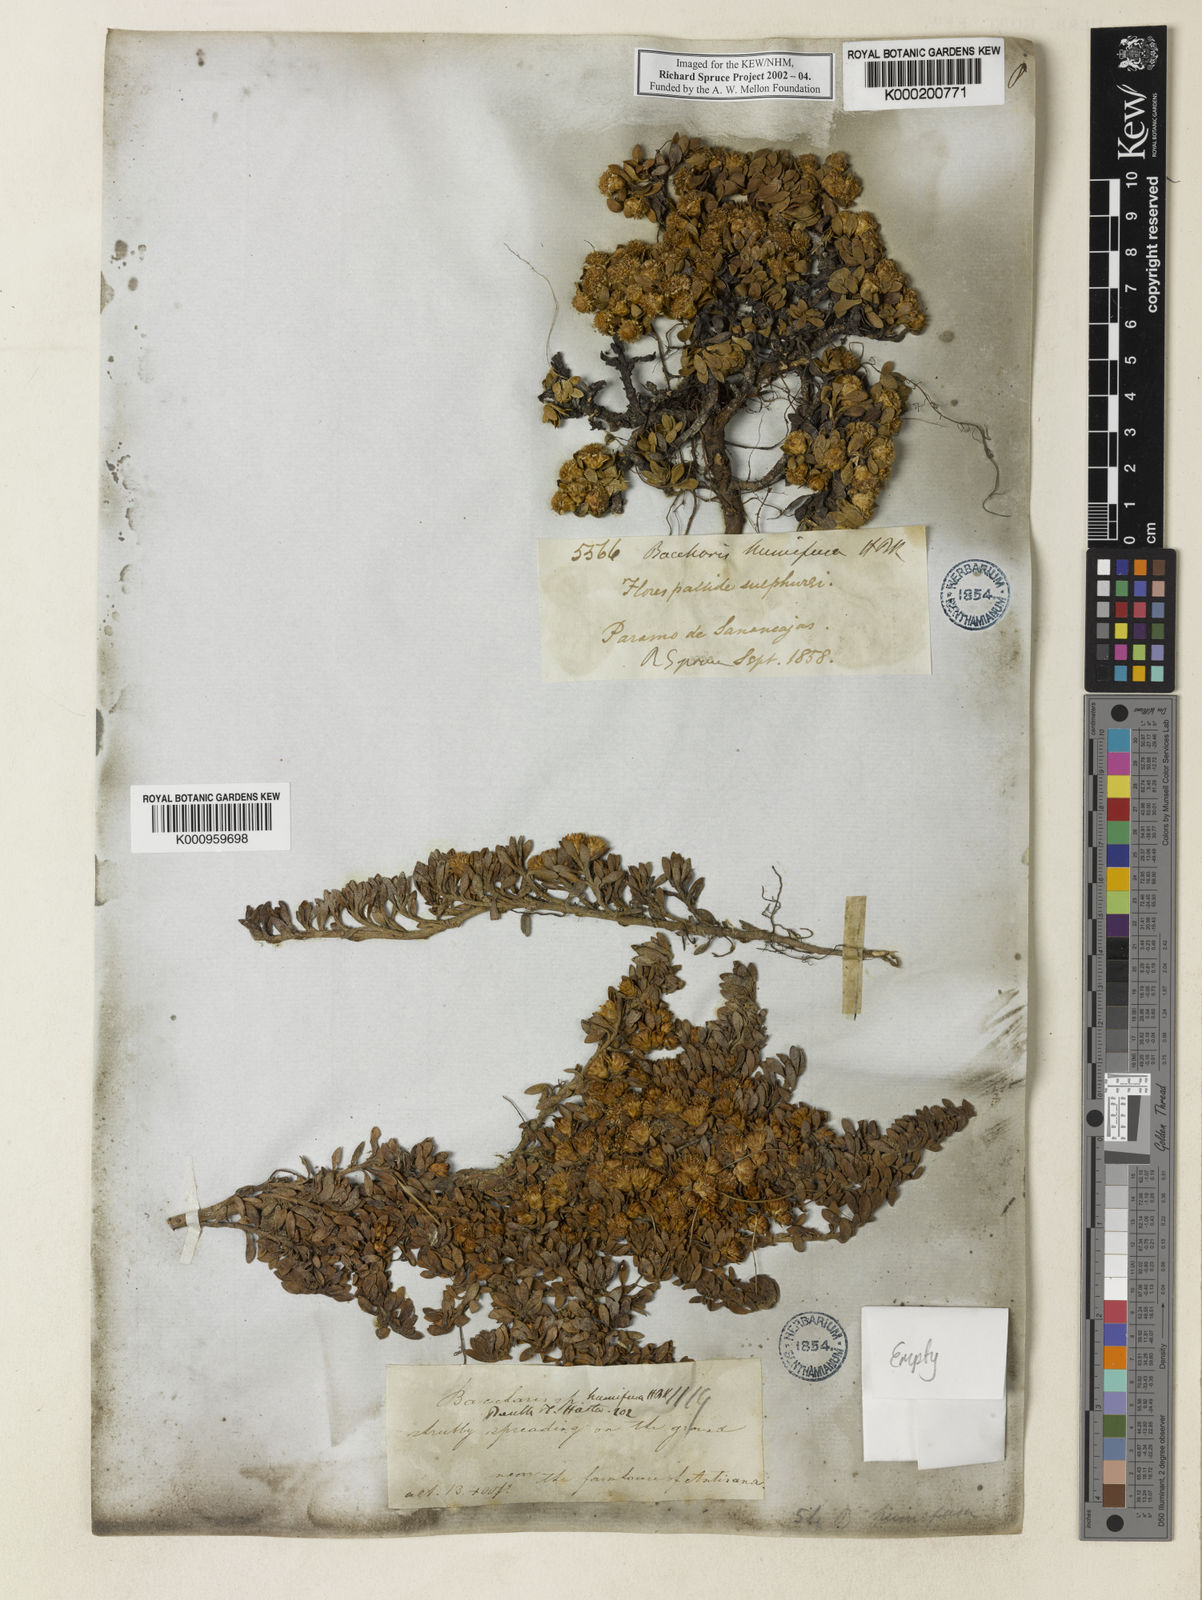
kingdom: Plantae
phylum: Tracheophyta
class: Magnoliopsida
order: Asterales
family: Asteraceae
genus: Baccharis
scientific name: Baccharis alpina
